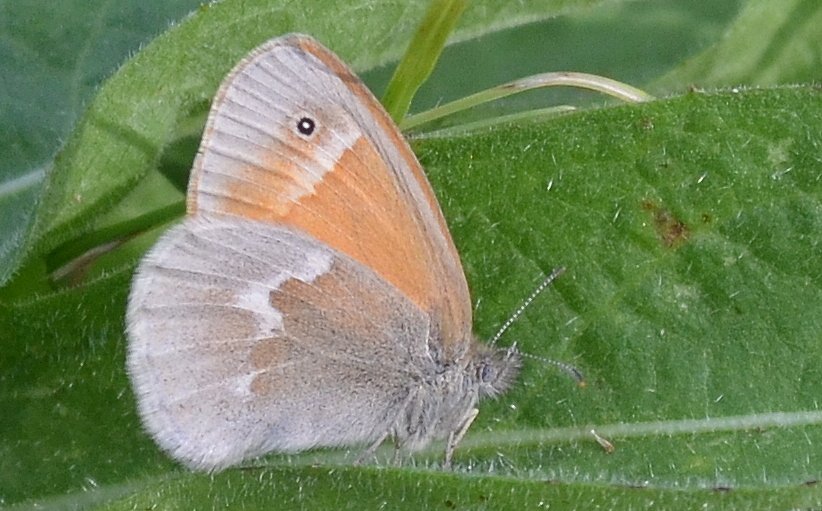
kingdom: Animalia
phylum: Arthropoda
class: Insecta
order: Lepidoptera
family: Nymphalidae
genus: Coenonympha
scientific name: Coenonympha tullia
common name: Large Heath
